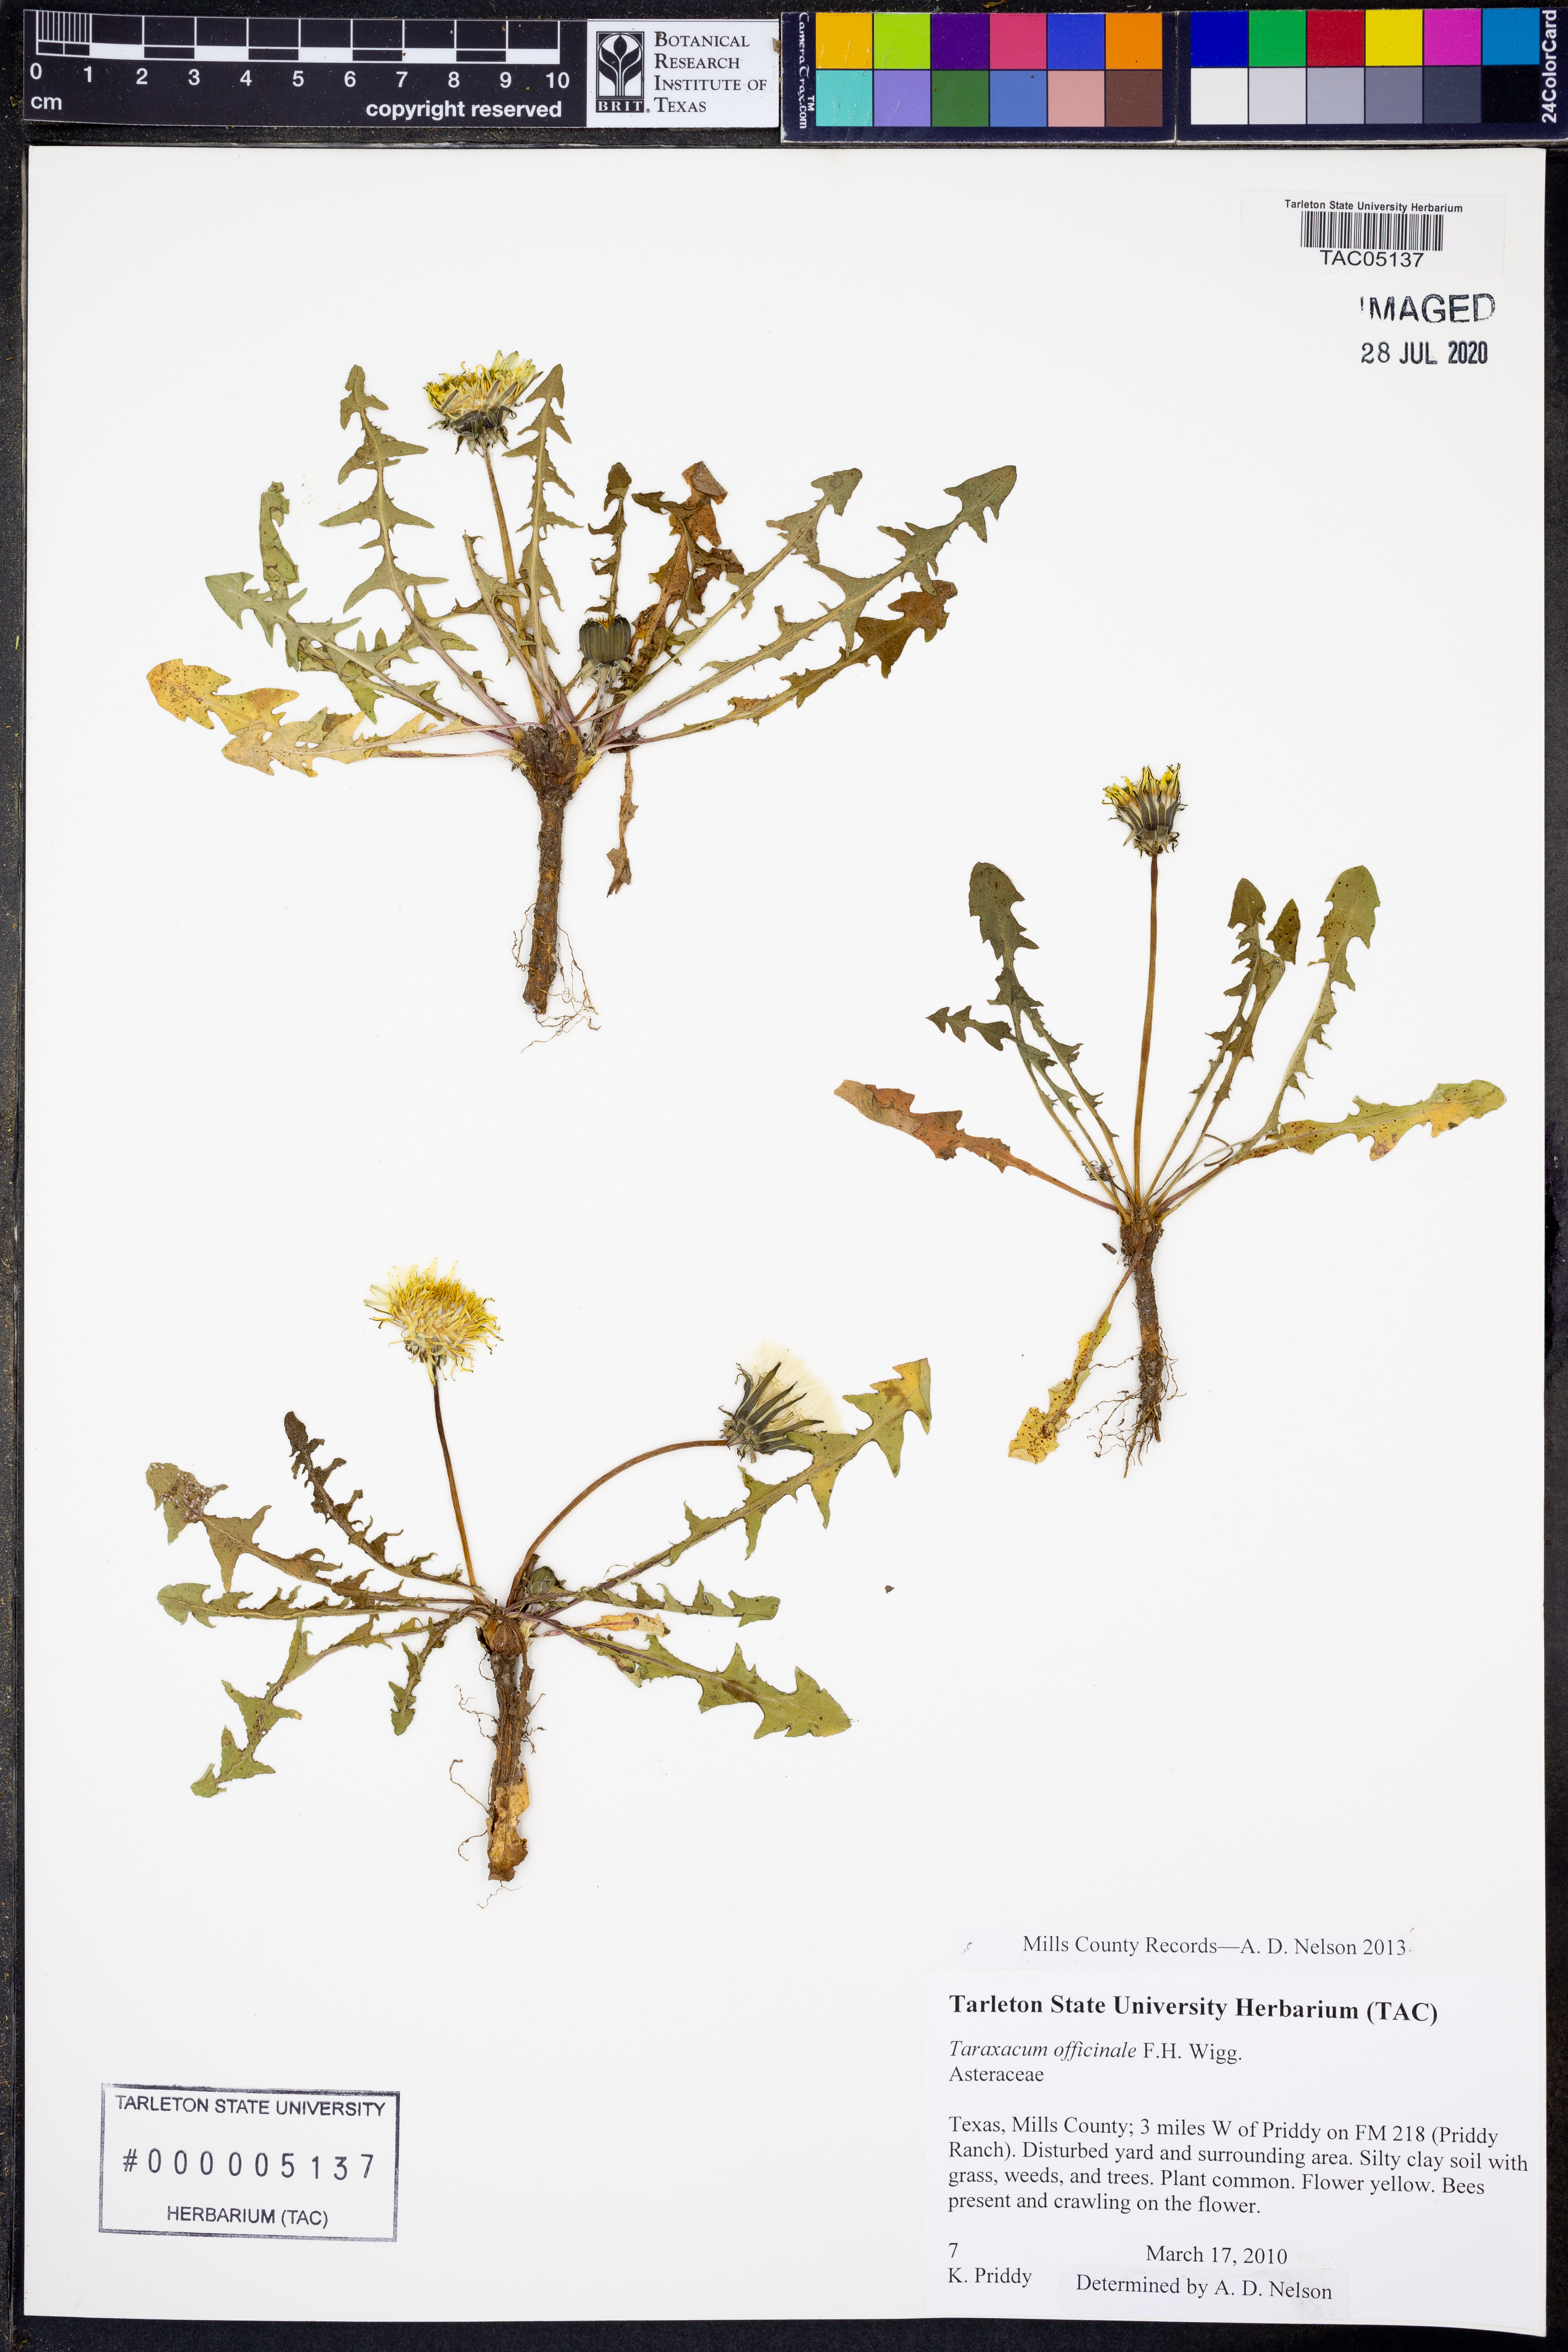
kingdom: Plantae
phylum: Tracheophyta
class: Magnoliopsida
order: Asterales
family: Asteraceae
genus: Taraxacum
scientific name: Taraxacum officinale
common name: Common dandelion
